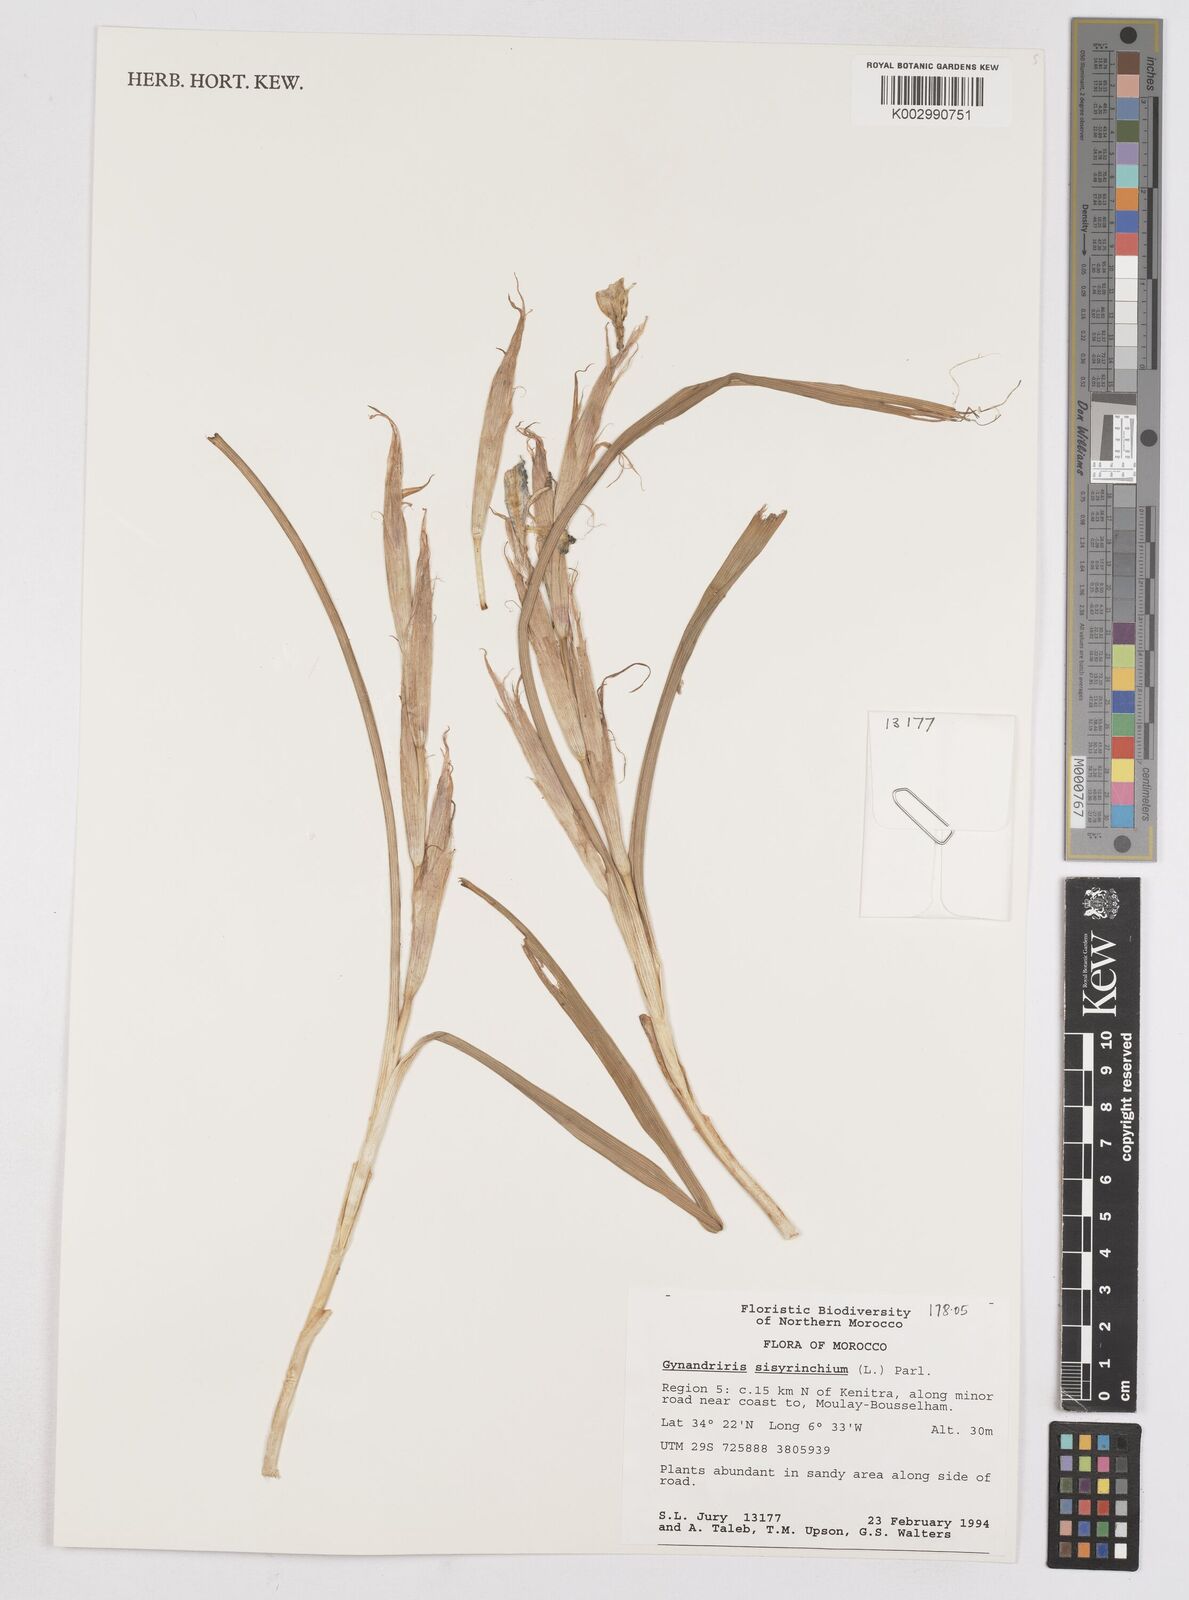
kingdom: Plantae
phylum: Tracheophyta
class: Liliopsida
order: Asparagales
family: Iridaceae
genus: Moraea
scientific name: Moraea sisyrinchium
